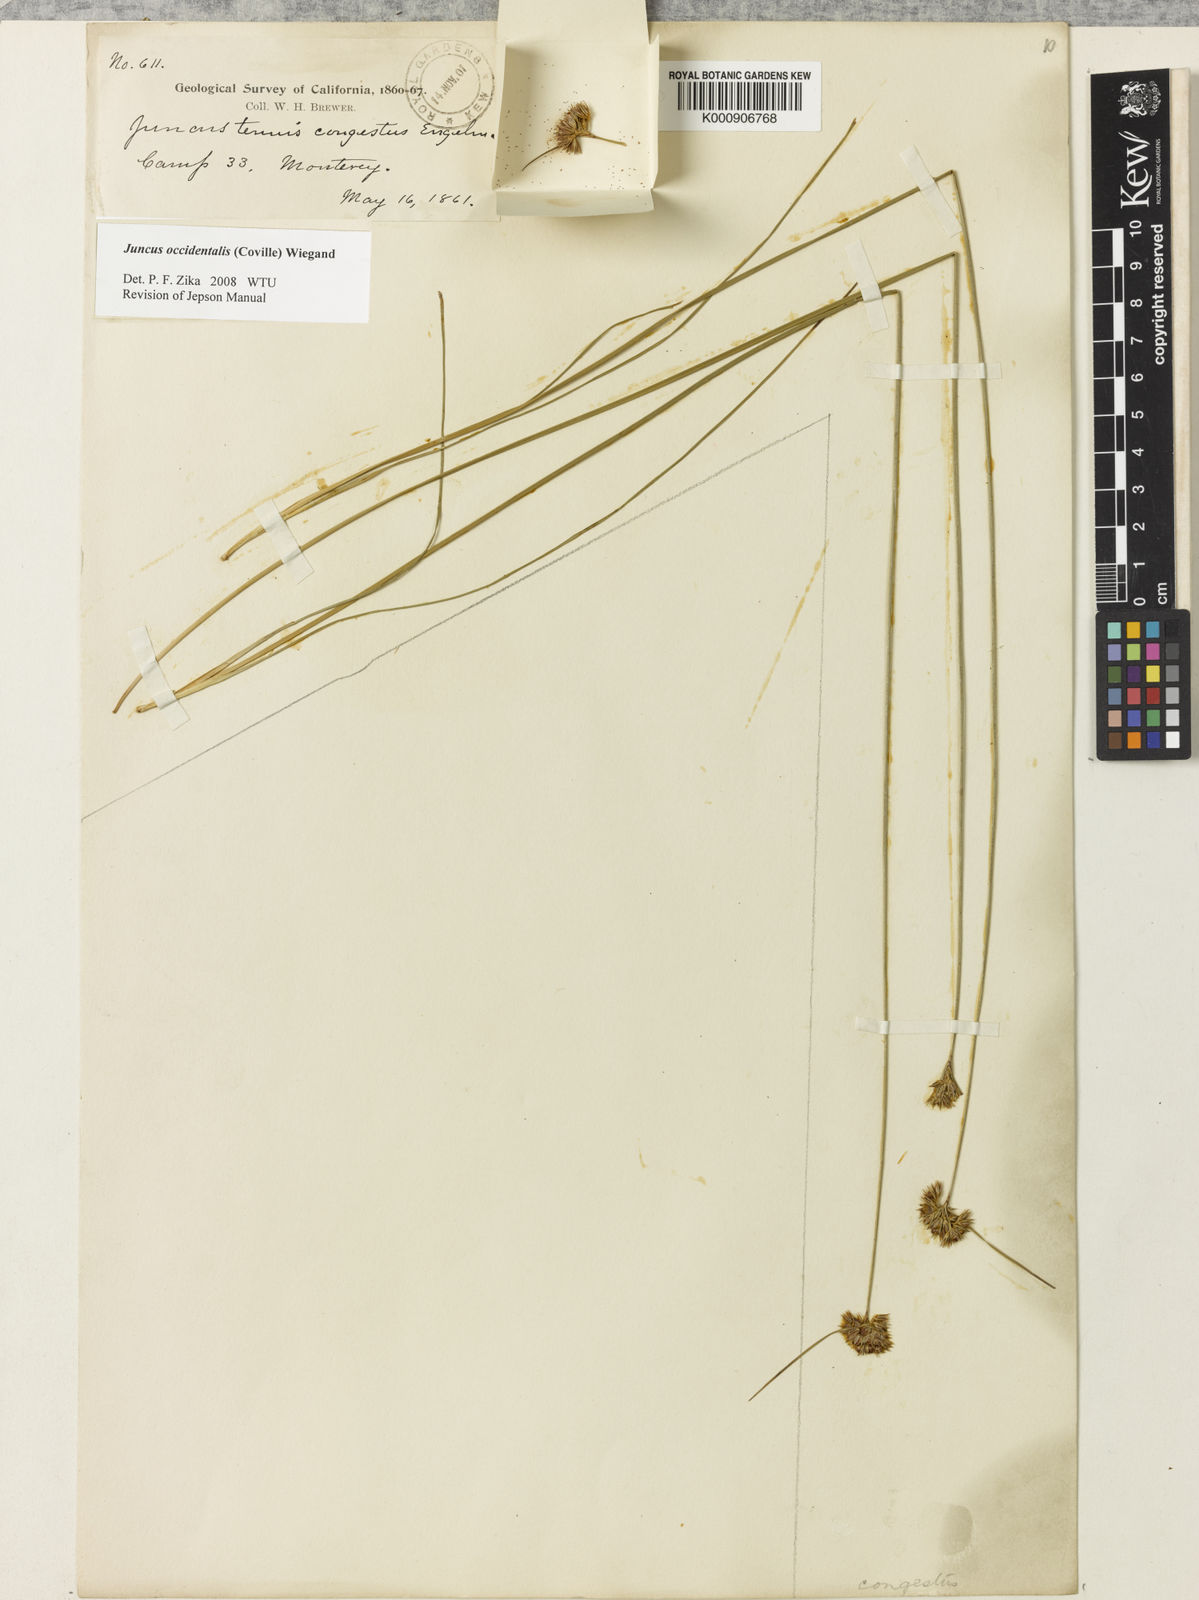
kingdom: Plantae
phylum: Tracheophyta
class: Liliopsida
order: Poales
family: Juncaceae
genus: Juncus
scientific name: Juncus occidentalis
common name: Western rush
